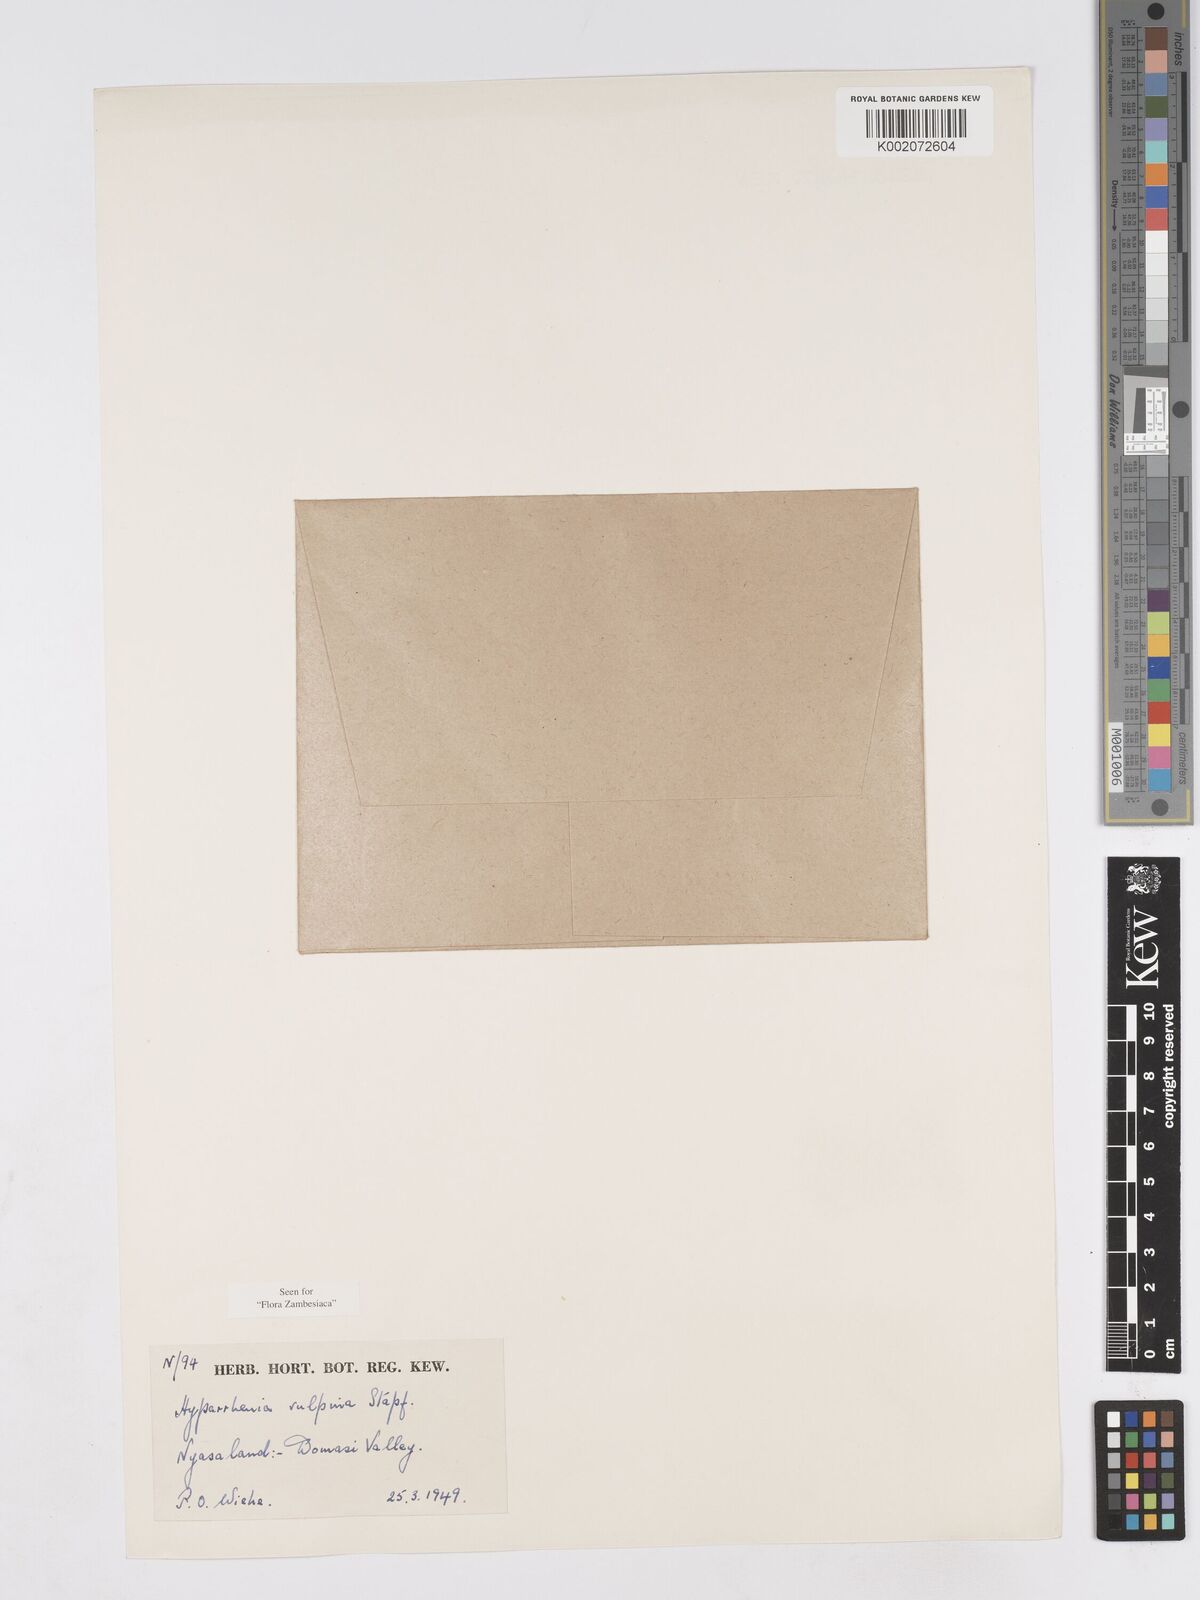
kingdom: Plantae
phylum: Tracheophyta
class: Liliopsida
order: Poales
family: Poaceae
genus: Hyparrhenia
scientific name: Hyparrhenia nyassae
